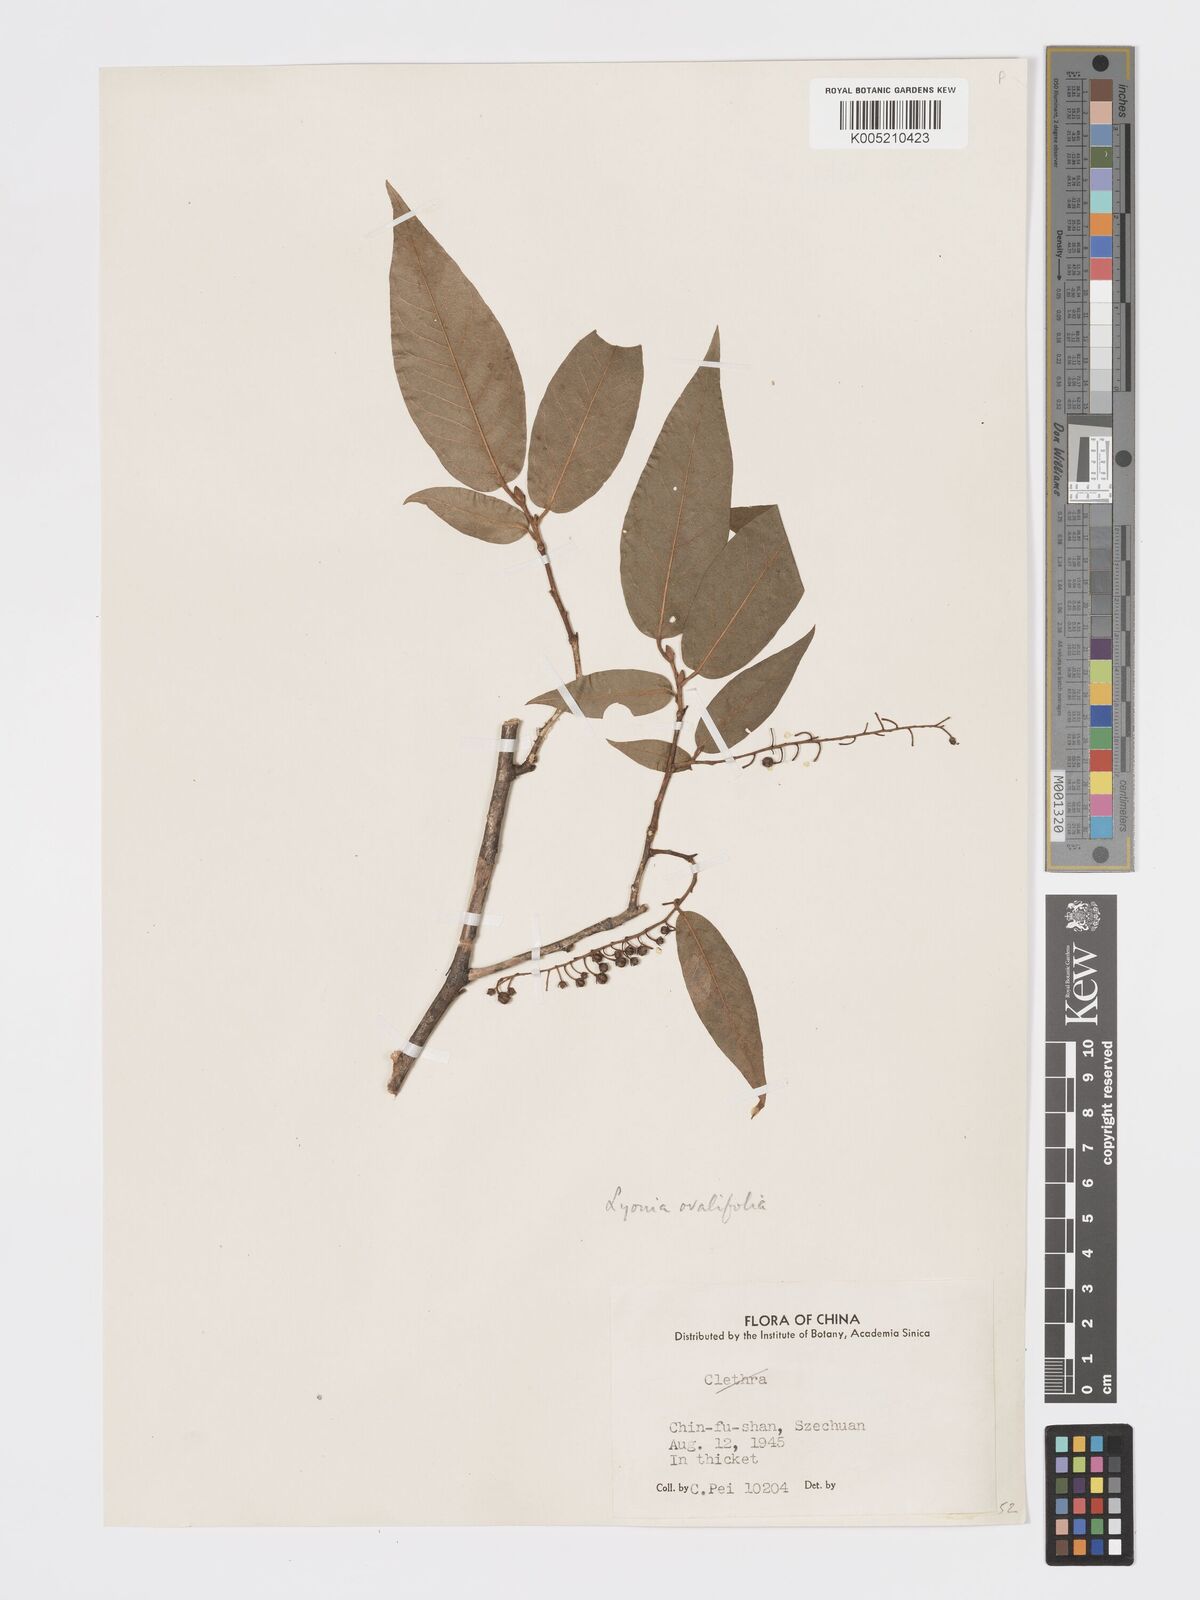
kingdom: Plantae
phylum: Tracheophyta
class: Magnoliopsida
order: Ericales
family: Ericaceae
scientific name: Ericaceae
